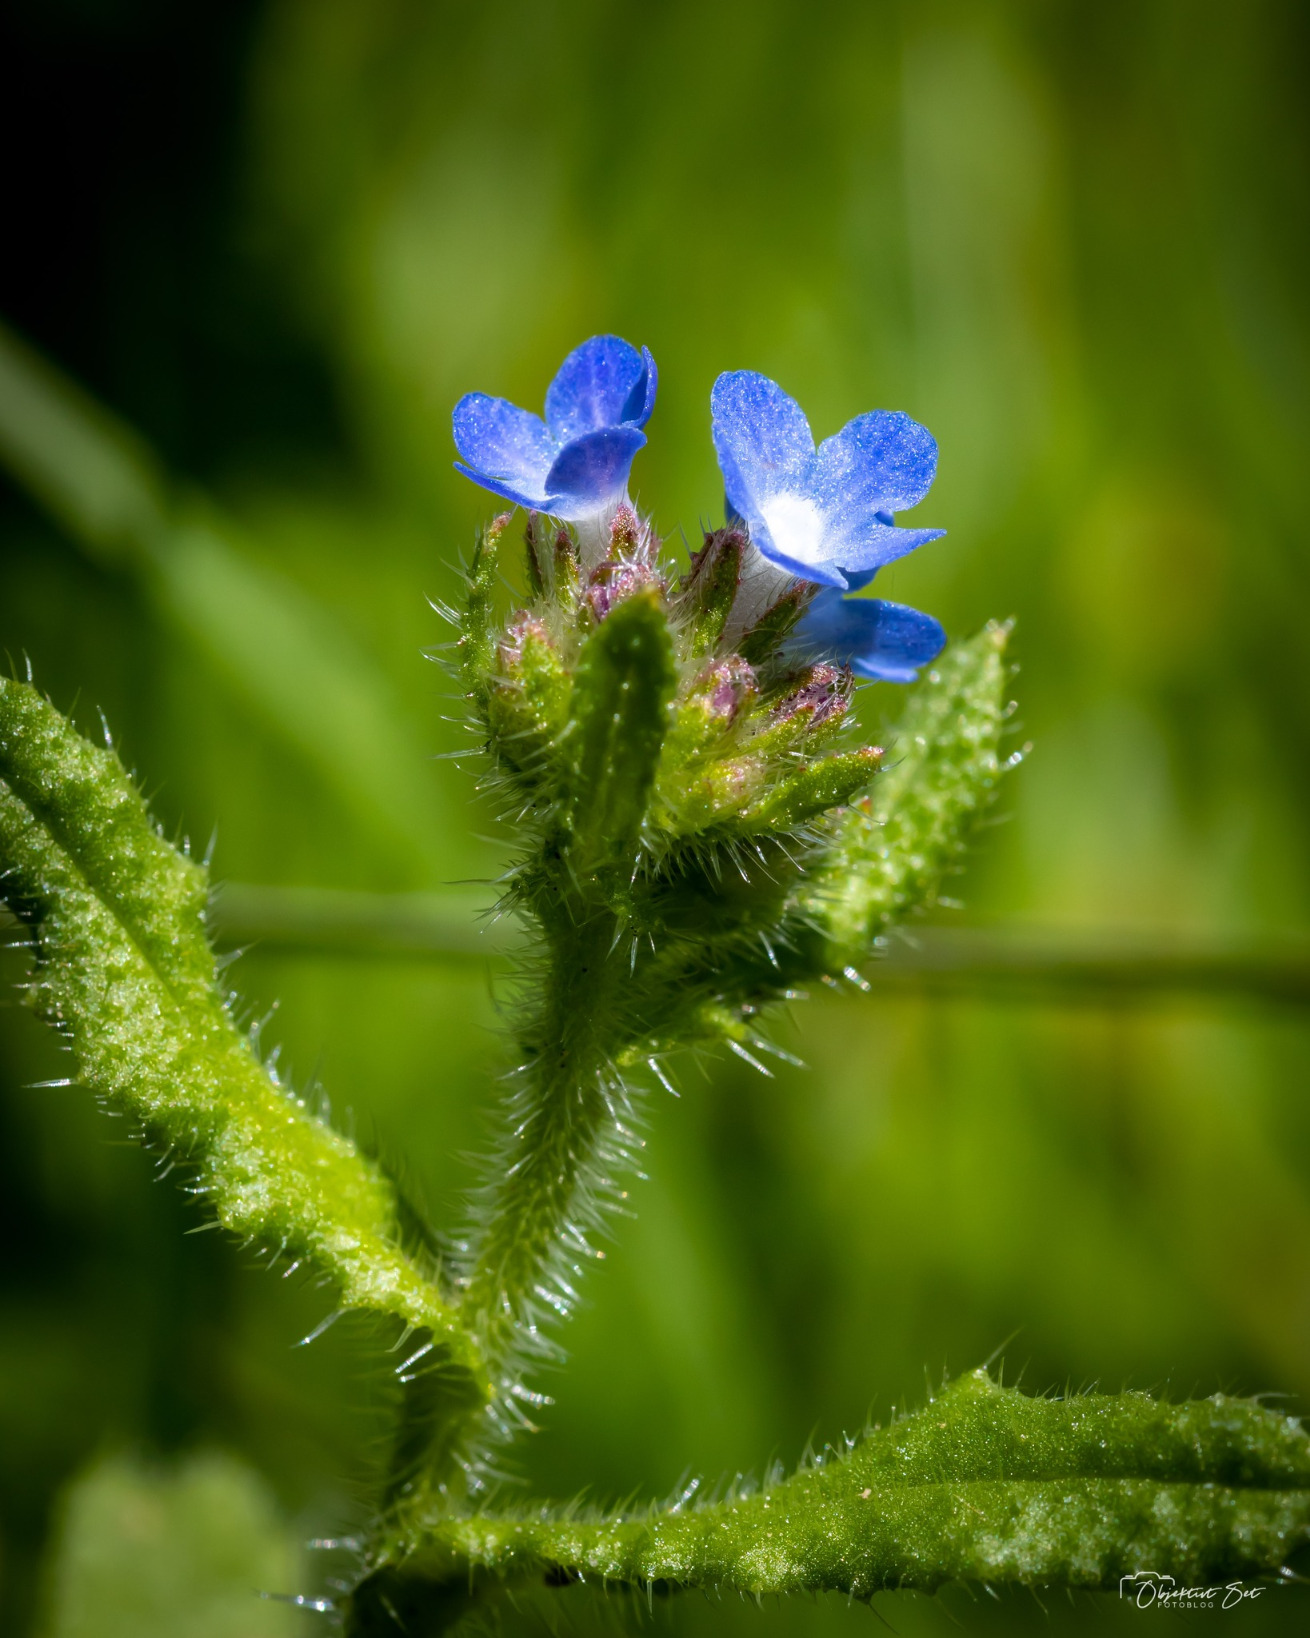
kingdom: Plantae
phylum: Tracheophyta
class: Magnoliopsida
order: Boraginales
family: Boraginaceae
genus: Lycopsis
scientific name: Lycopsis arvensis
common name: Krumhals
